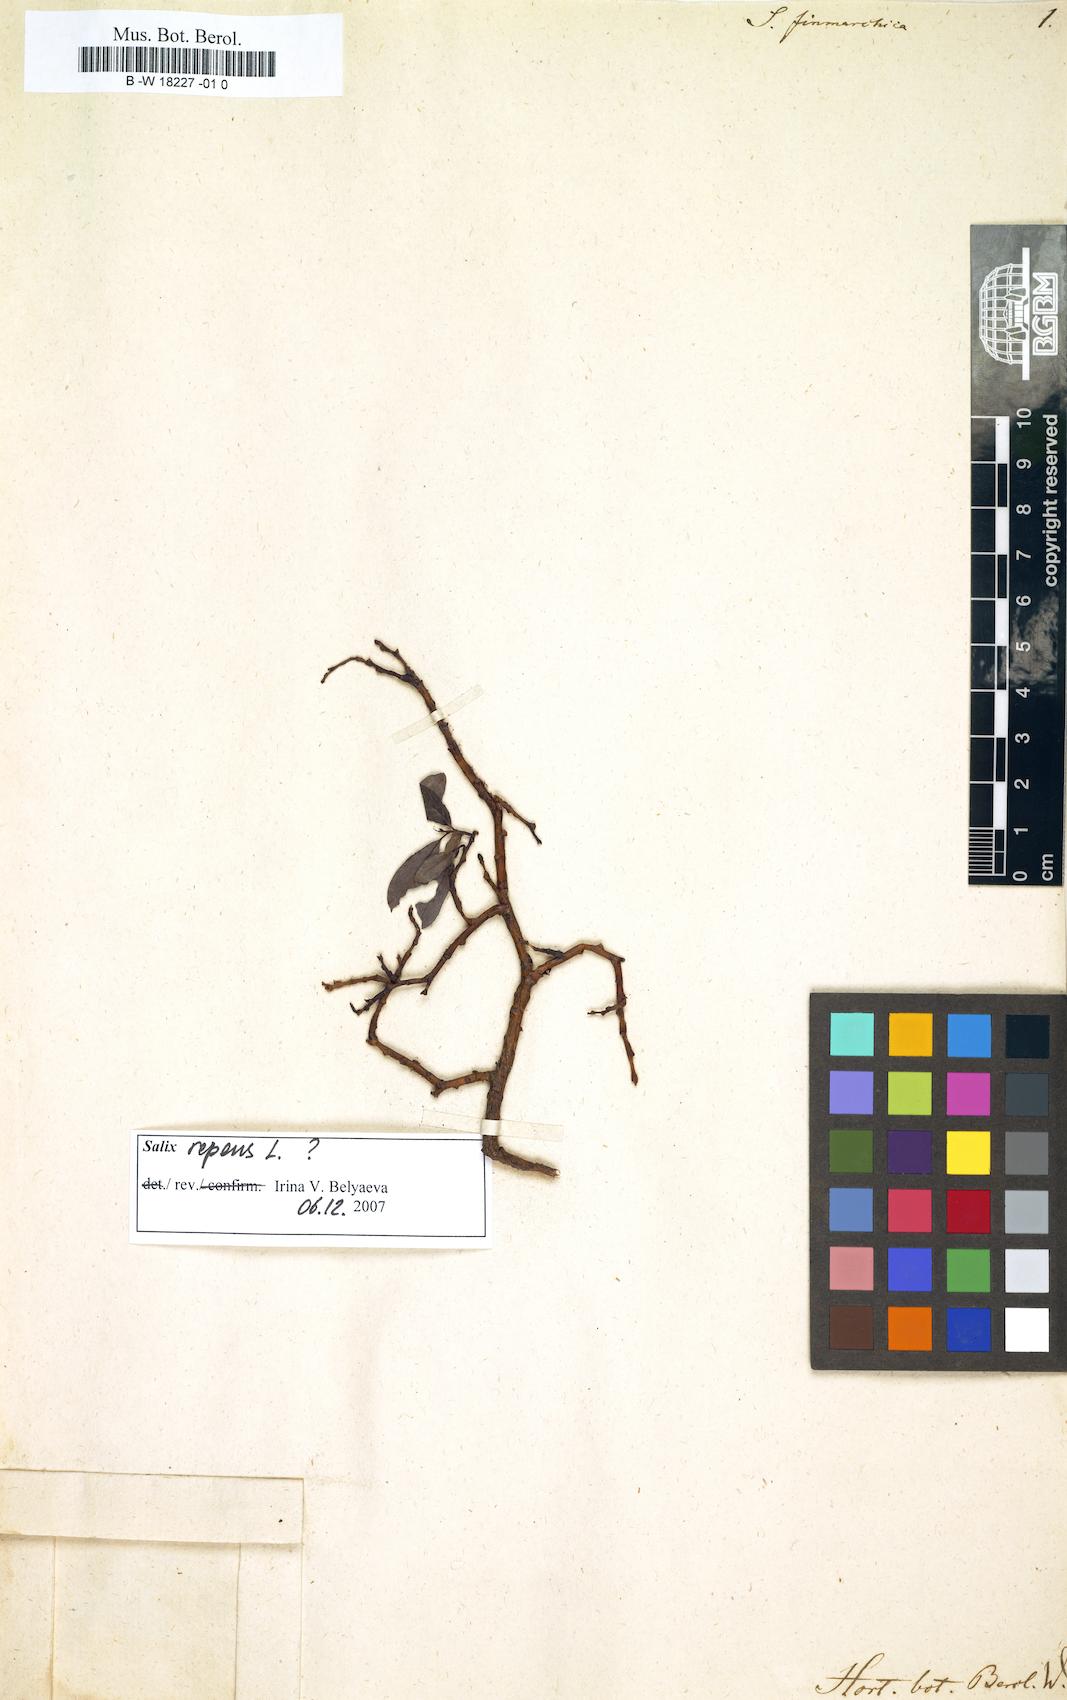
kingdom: Plantae
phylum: Tracheophyta
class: Magnoliopsida
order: Malpighiales
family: Salicaceae
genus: Salix
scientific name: Salix finnmarchica
